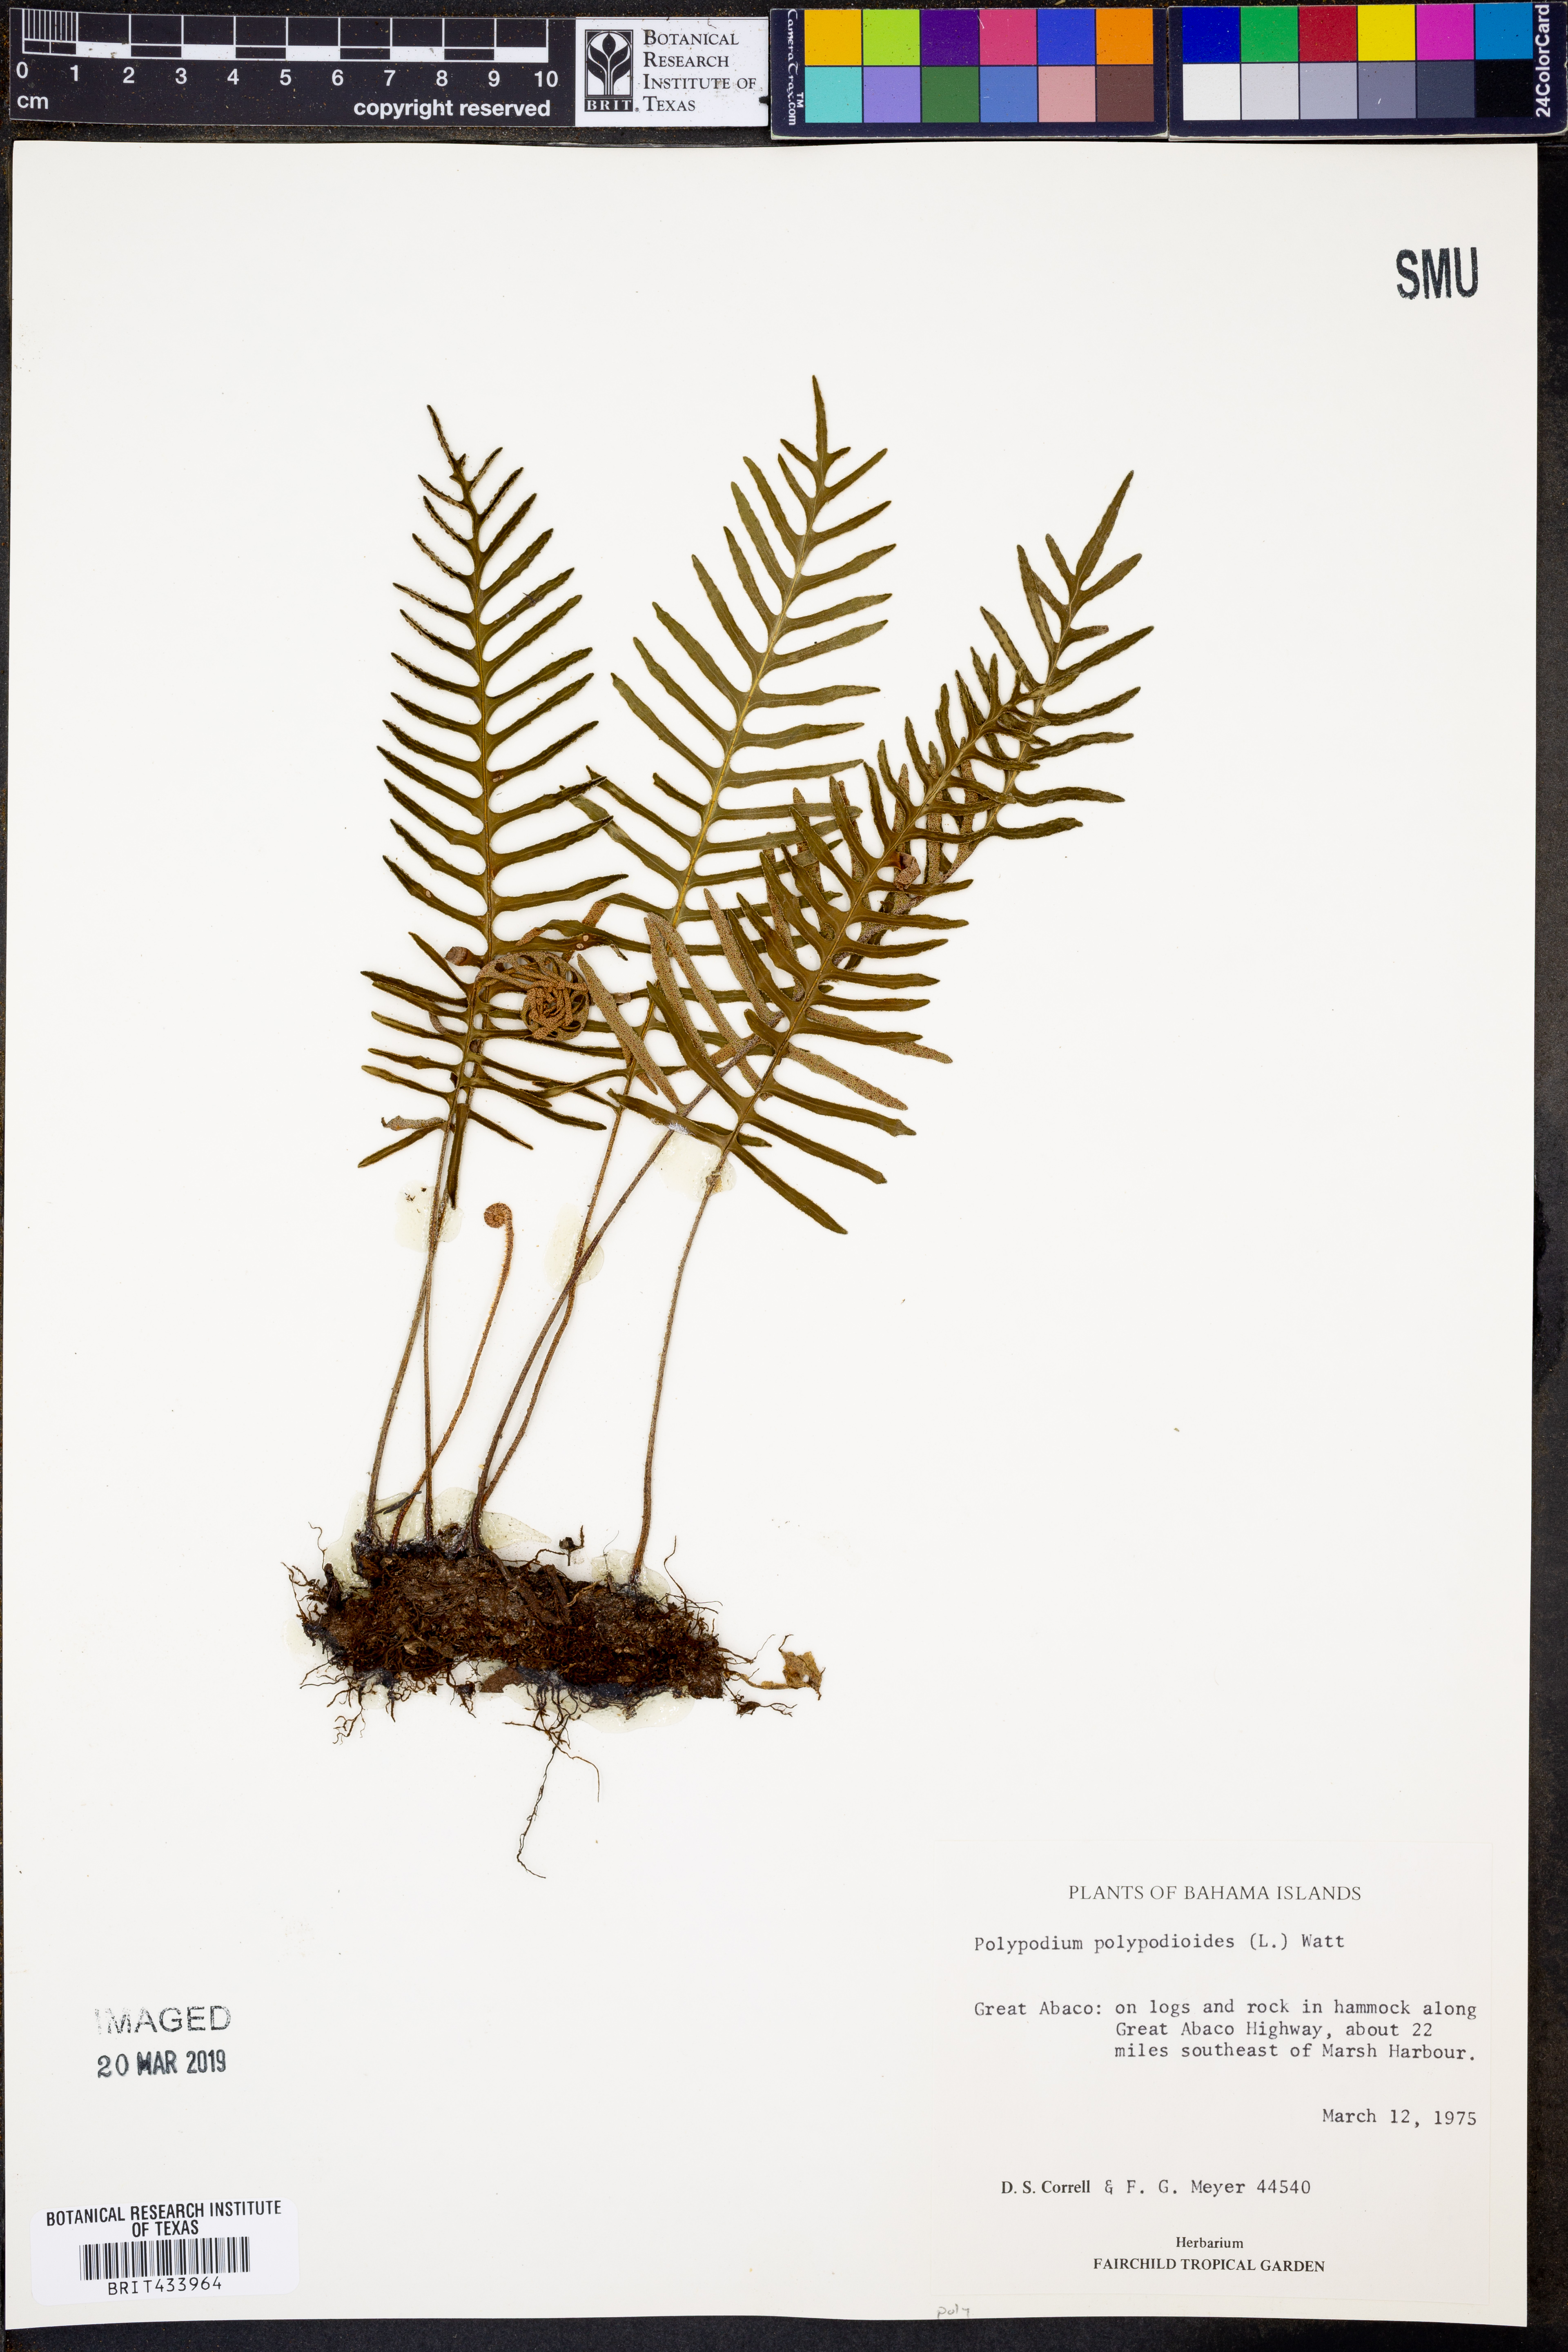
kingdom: Plantae
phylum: Tracheophyta
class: Polypodiopsida
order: Polypodiales
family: Polypodiaceae
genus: Pleopeltis
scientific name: Pleopeltis polypodioides
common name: Resurrection fern
